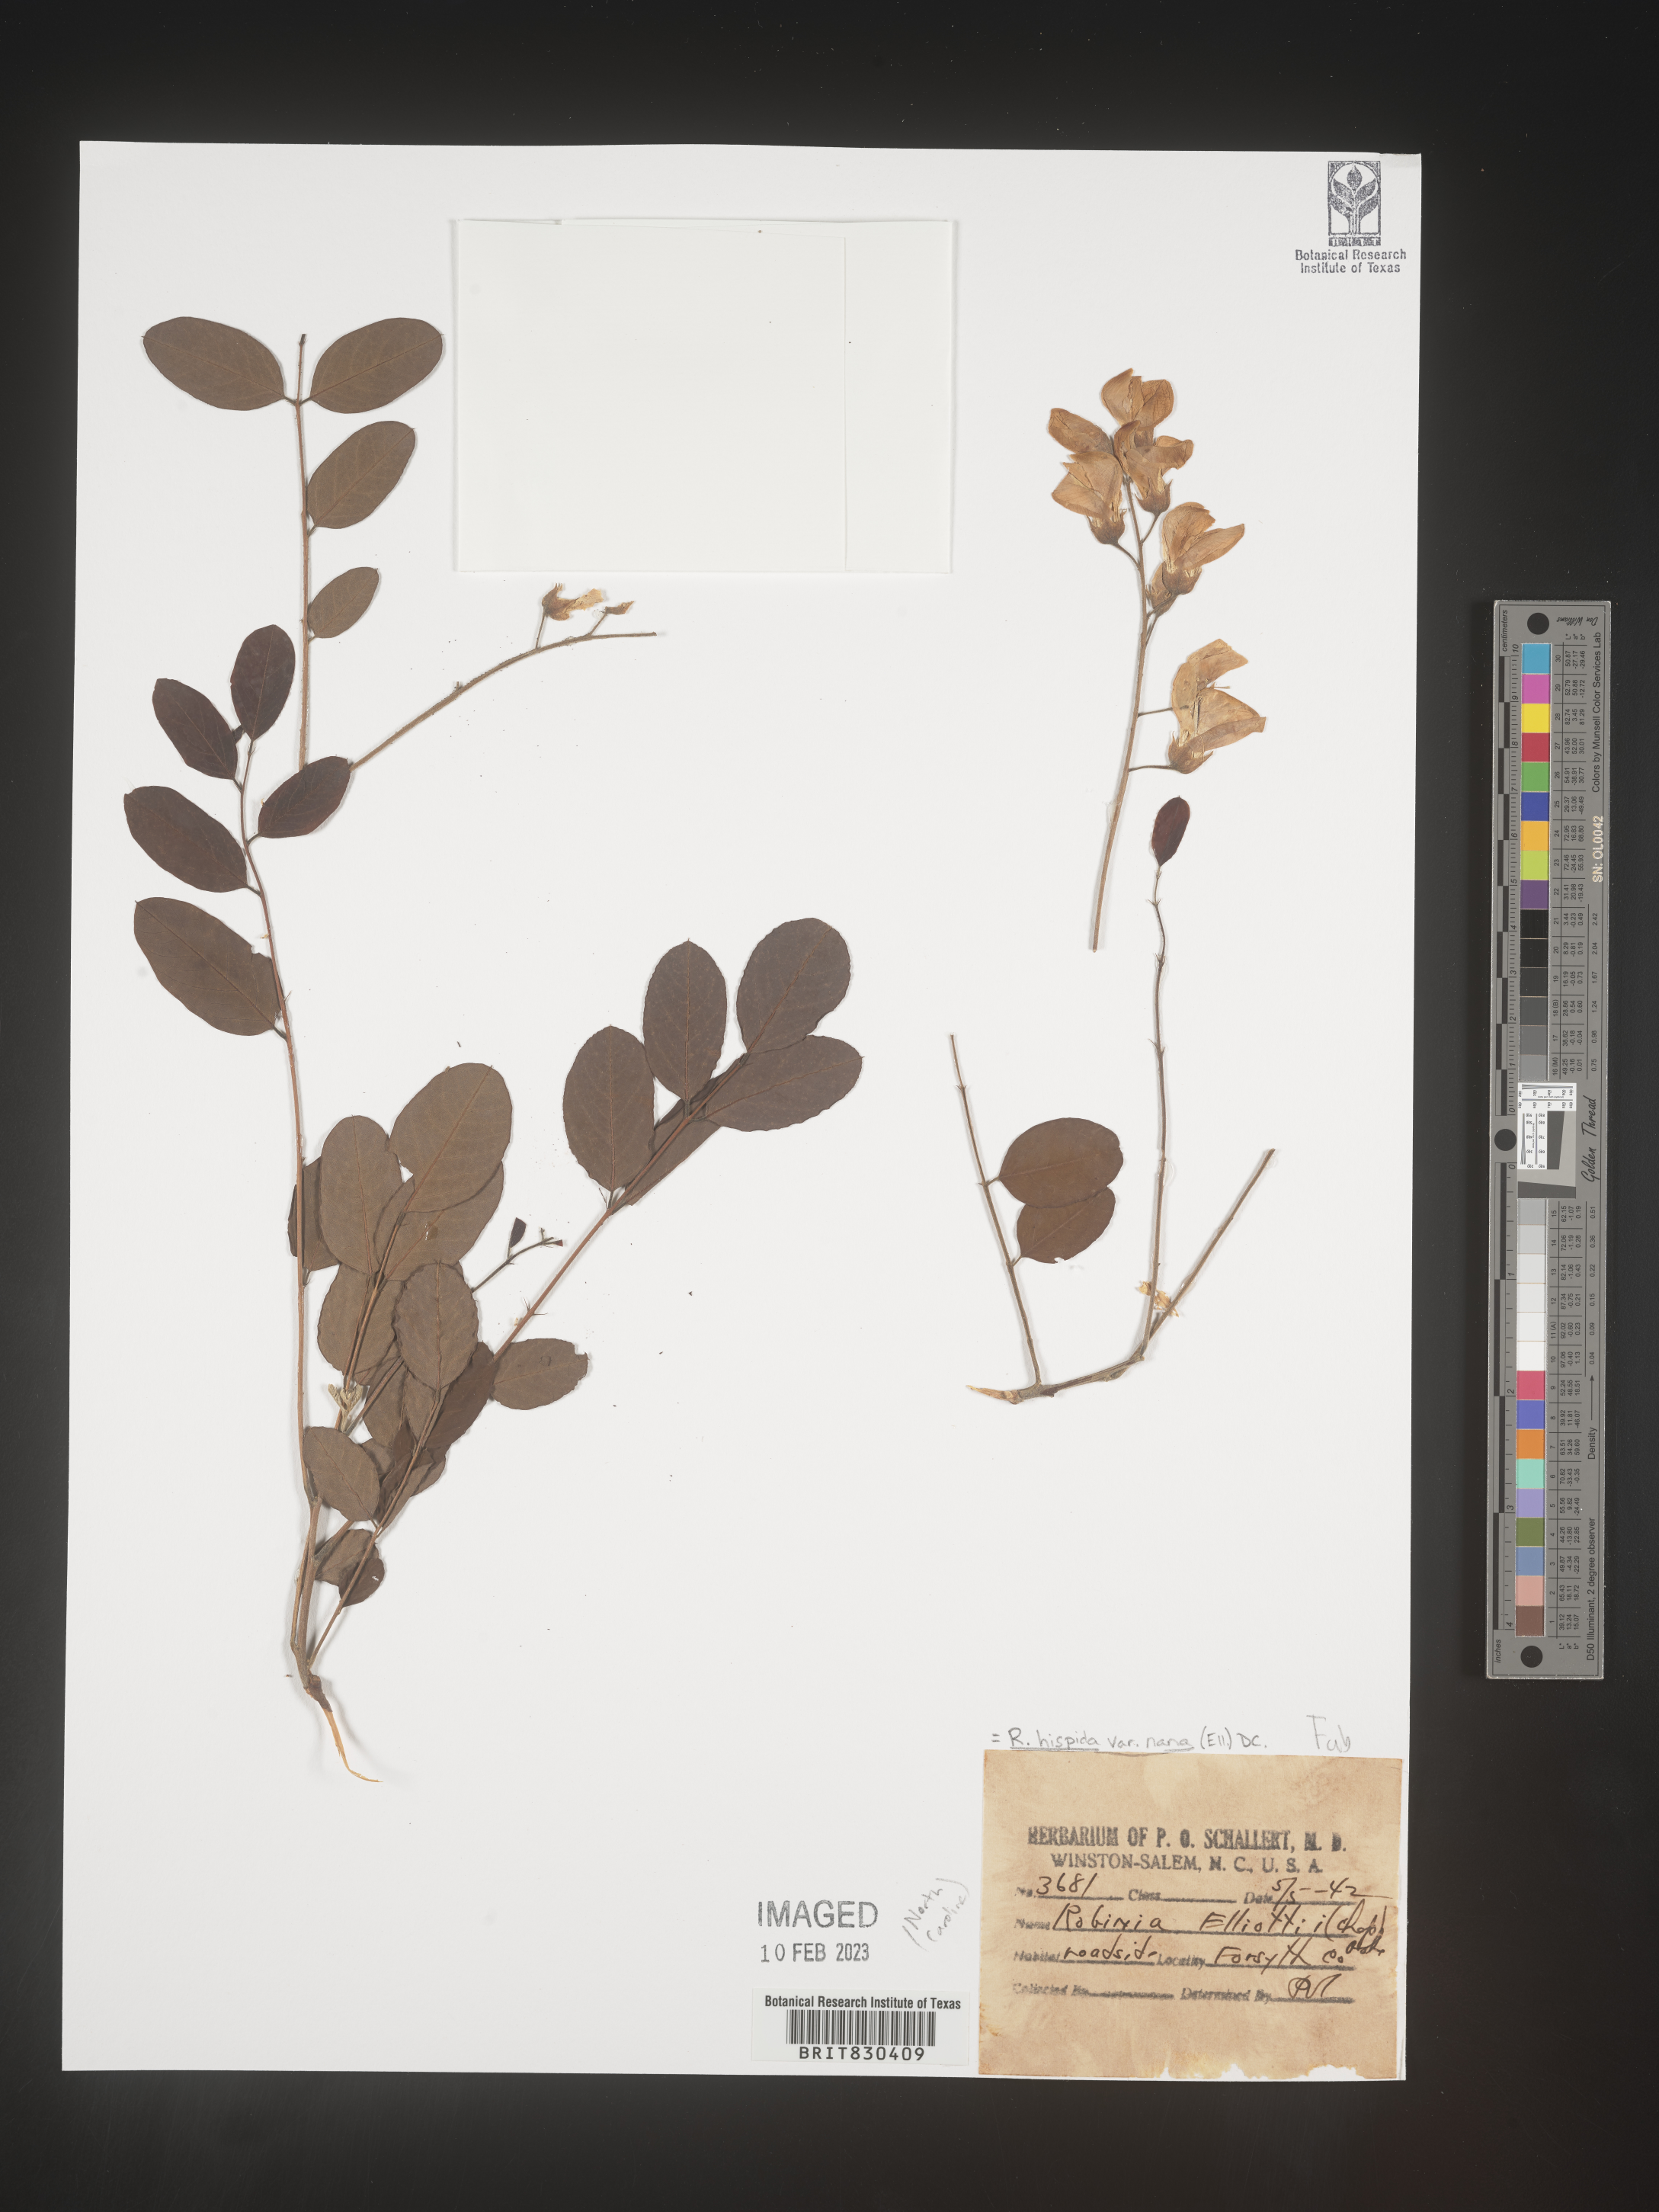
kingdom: Plantae
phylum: Tracheophyta
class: Magnoliopsida
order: Fabales
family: Fabaceae
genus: Robinia
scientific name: Robinia hispida
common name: Bristly locust
